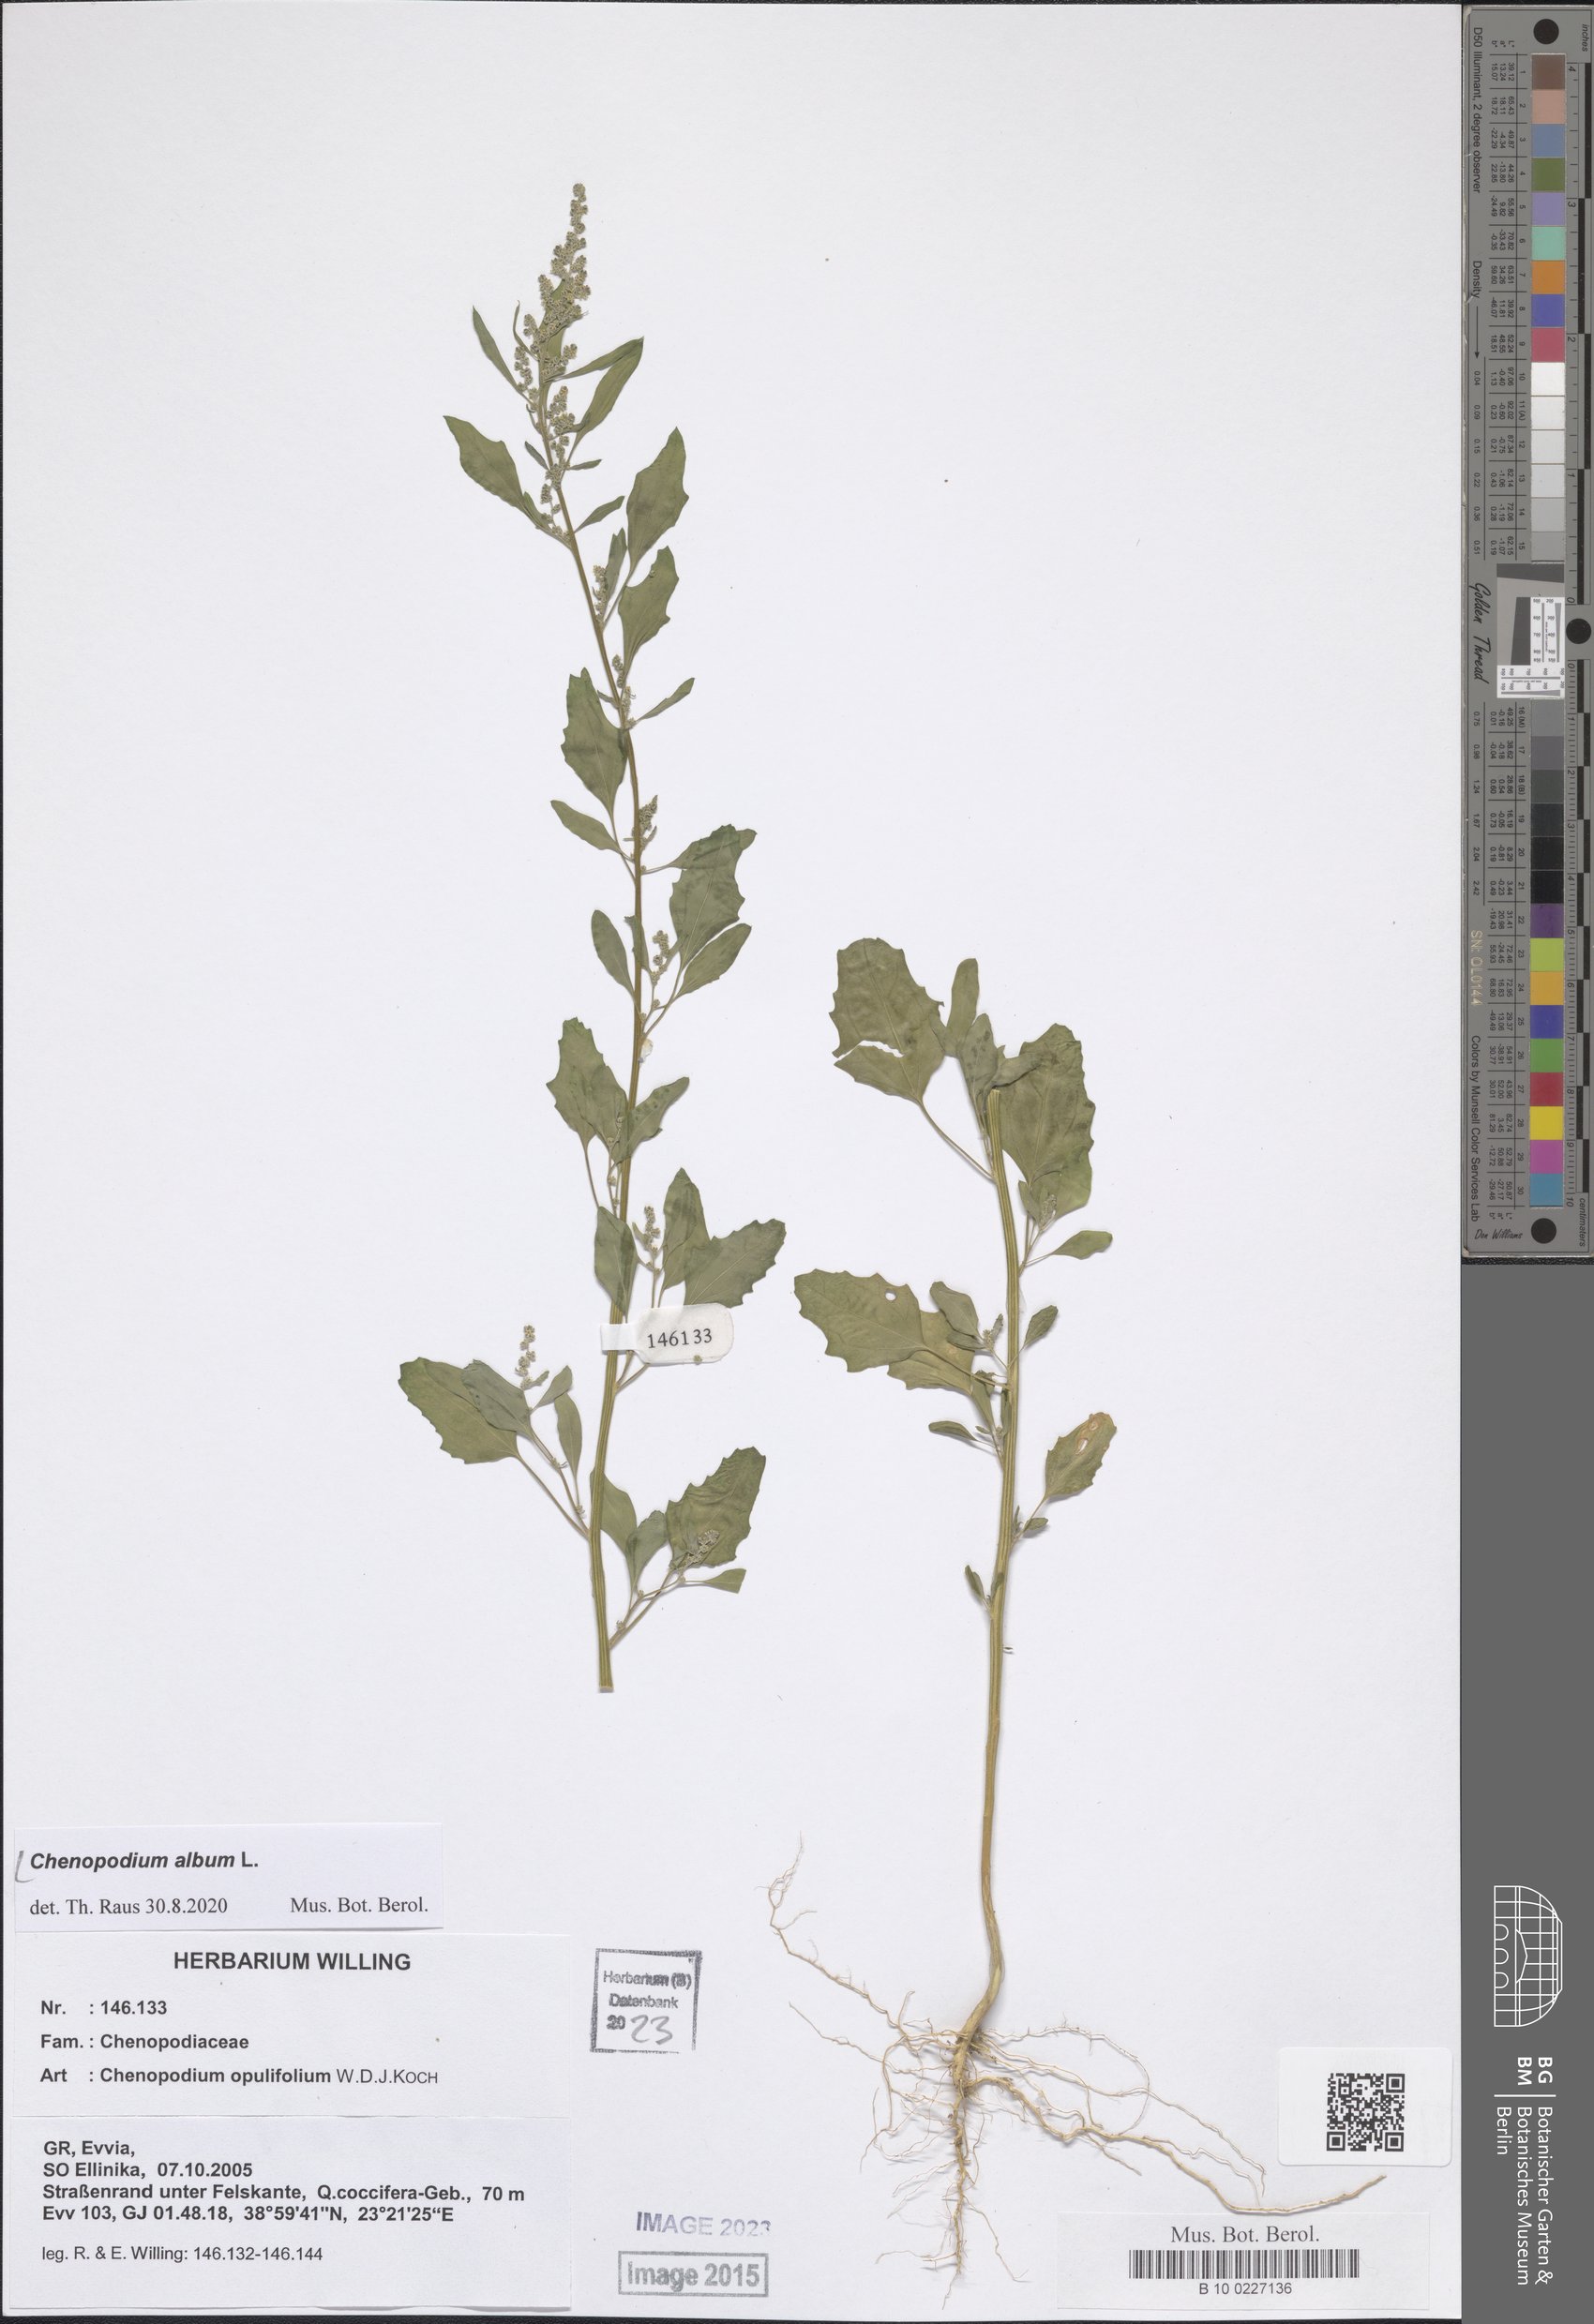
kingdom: Plantae
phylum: Tracheophyta
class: Magnoliopsida
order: Caryophyllales
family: Amaranthaceae
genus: Chenopodium
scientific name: Chenopodium album
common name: Fat-hen
